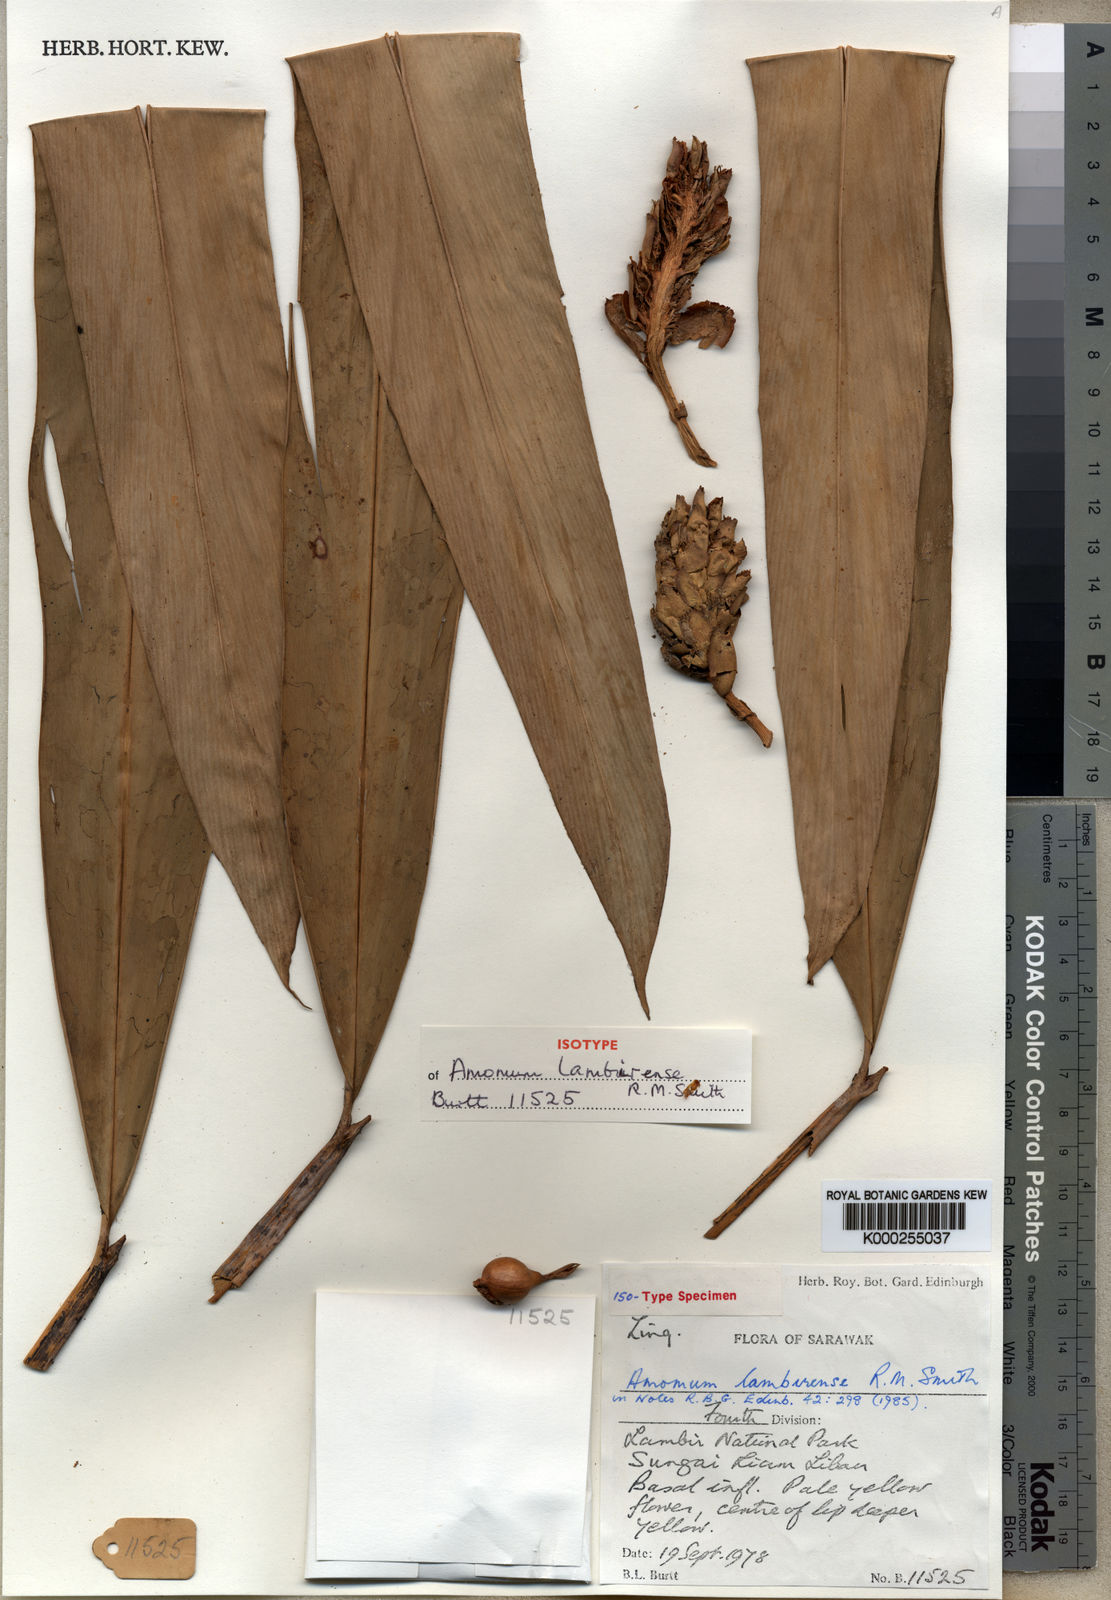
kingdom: Plantae
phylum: Tracheophyta
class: Liliopsida
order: Zingiberales
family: Zingiberaceae
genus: Sulettaria
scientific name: Sulettaria lambirensis
